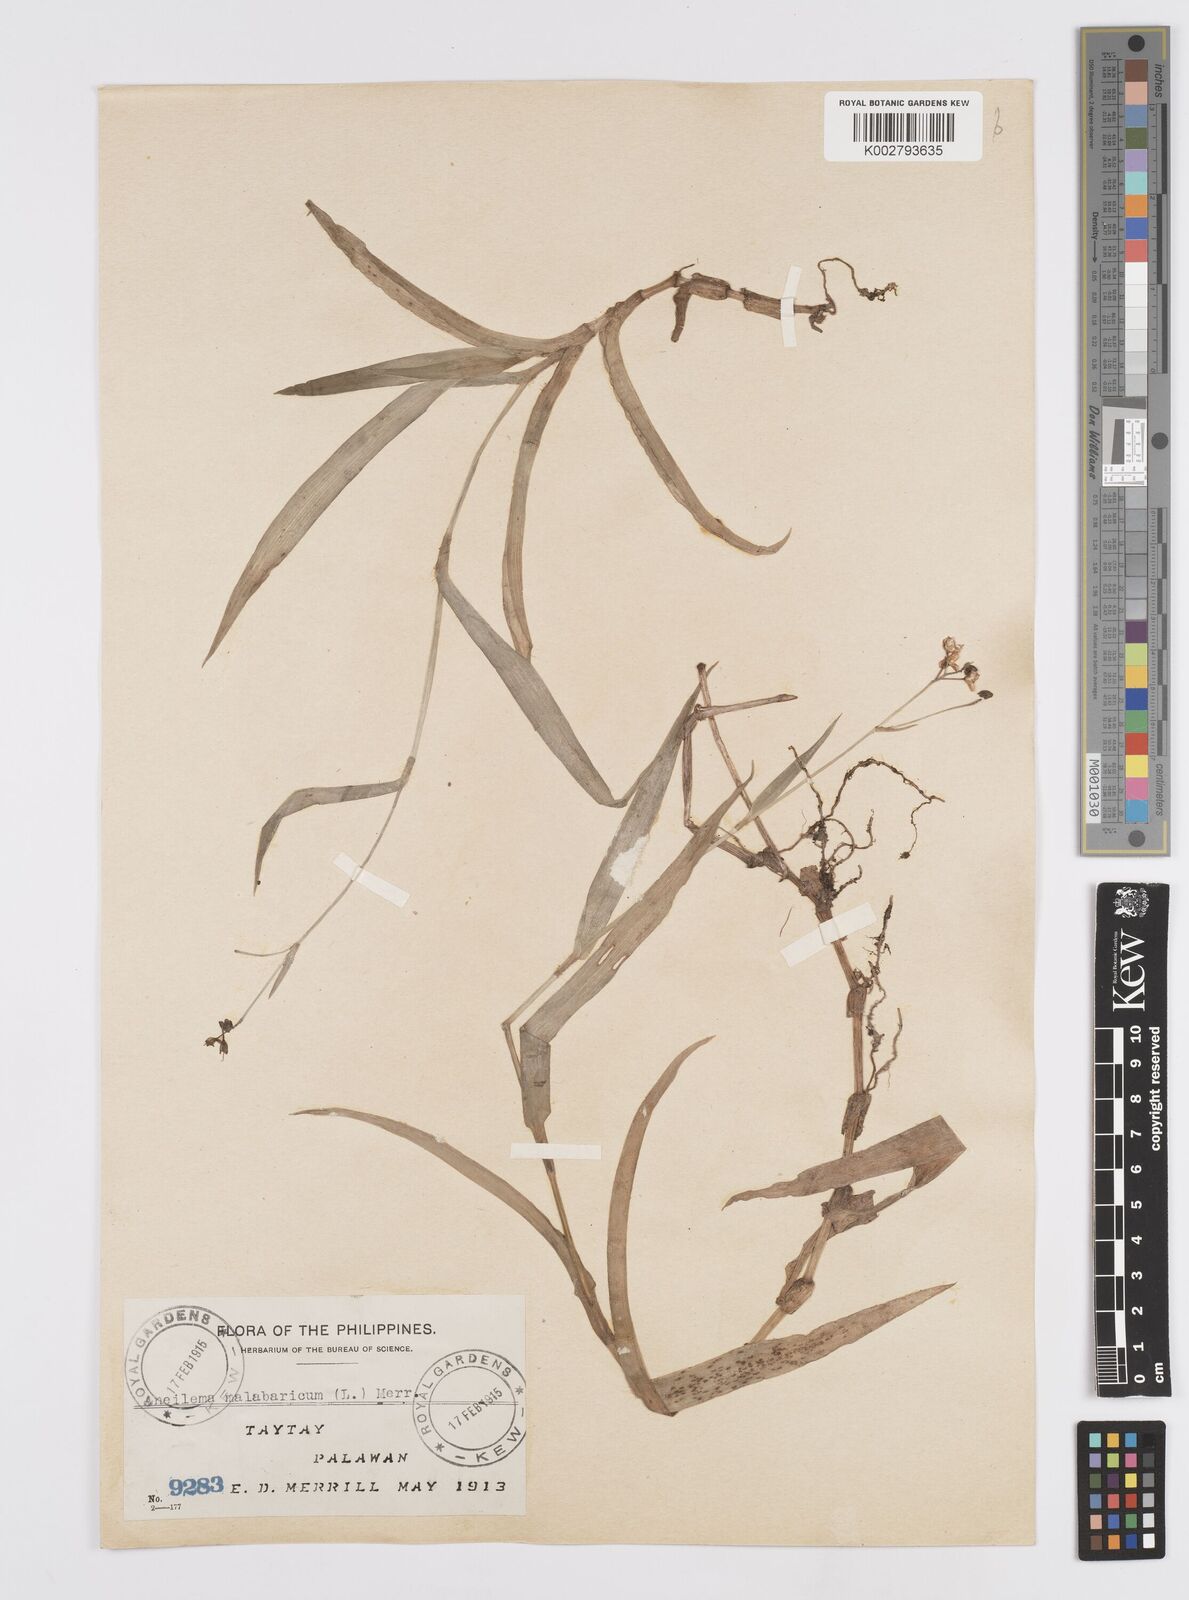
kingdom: Plantae
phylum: Tracheophyta
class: Liliopsida
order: Commelinales
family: Commelinaceae
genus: Murdannia
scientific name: Murdannia nudiflora
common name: Nakedstem dewflower
